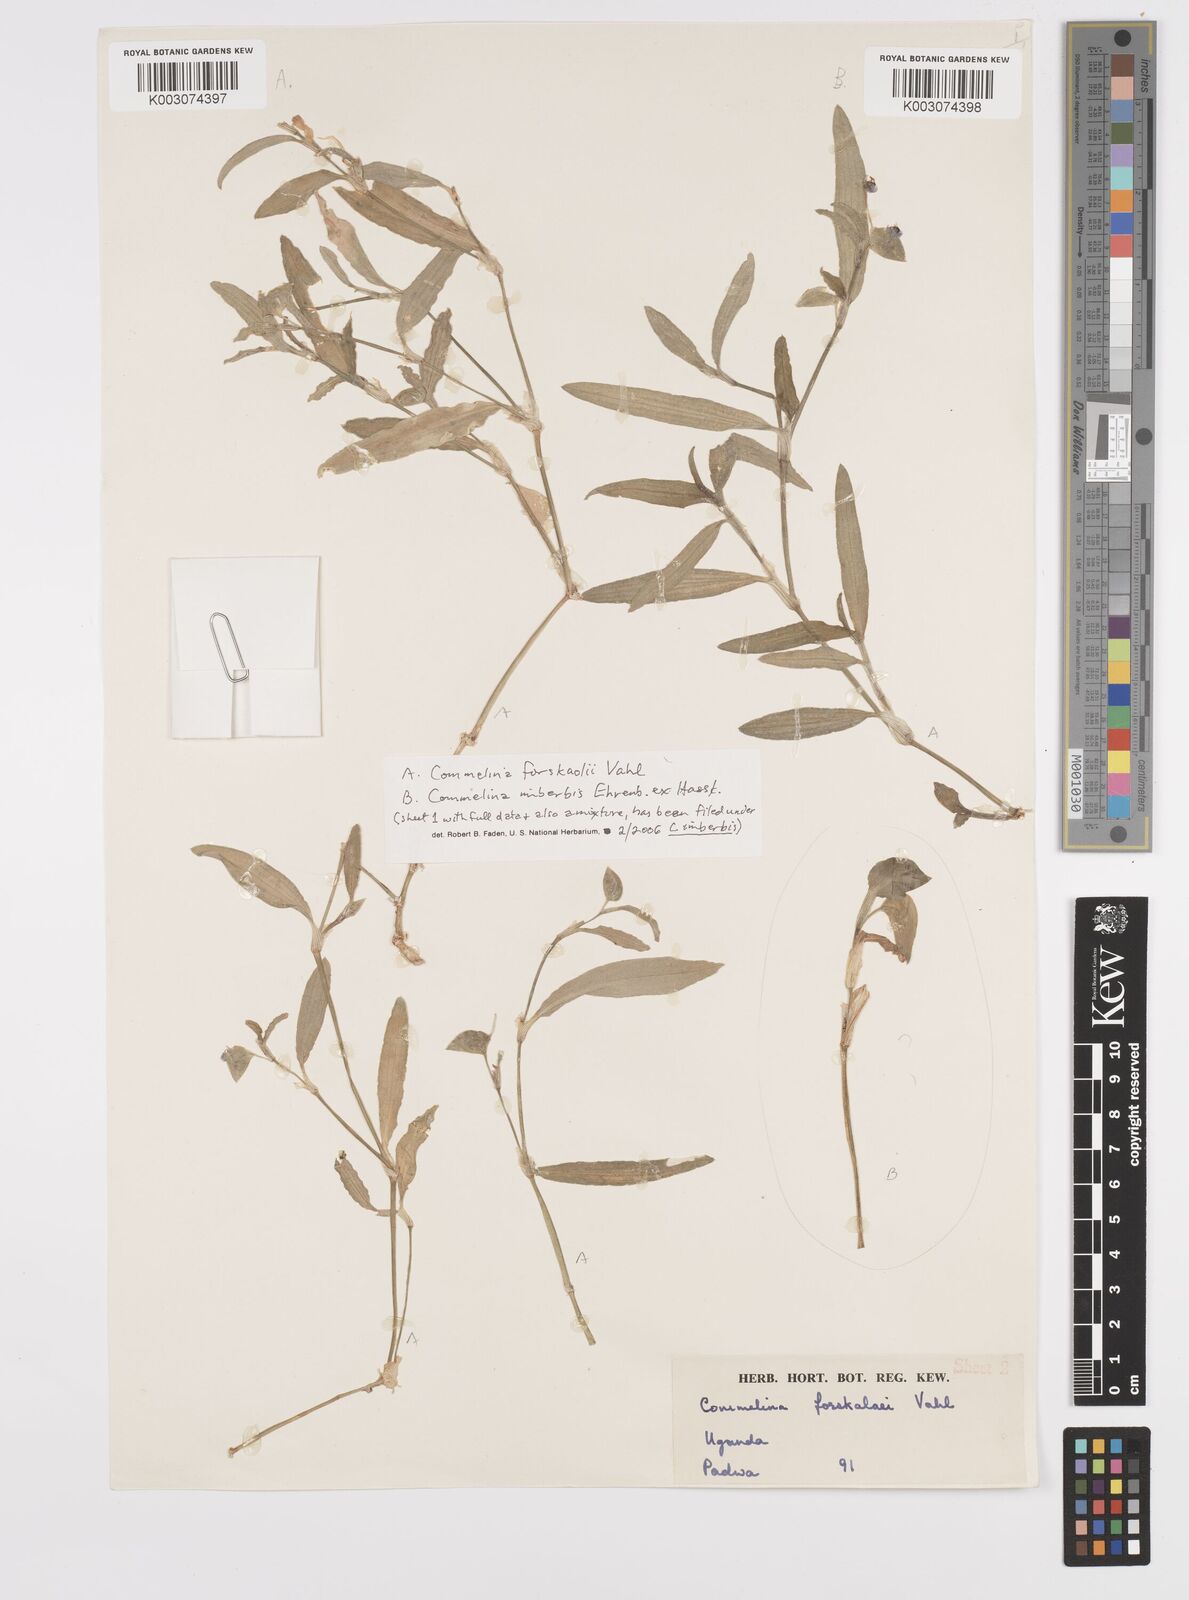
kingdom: Plantae
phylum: Tracheophyta
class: Liliopsida
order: Commelinales
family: Commelinaceae
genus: Commelina
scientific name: Commelina forskaolii
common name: Rat's ear
